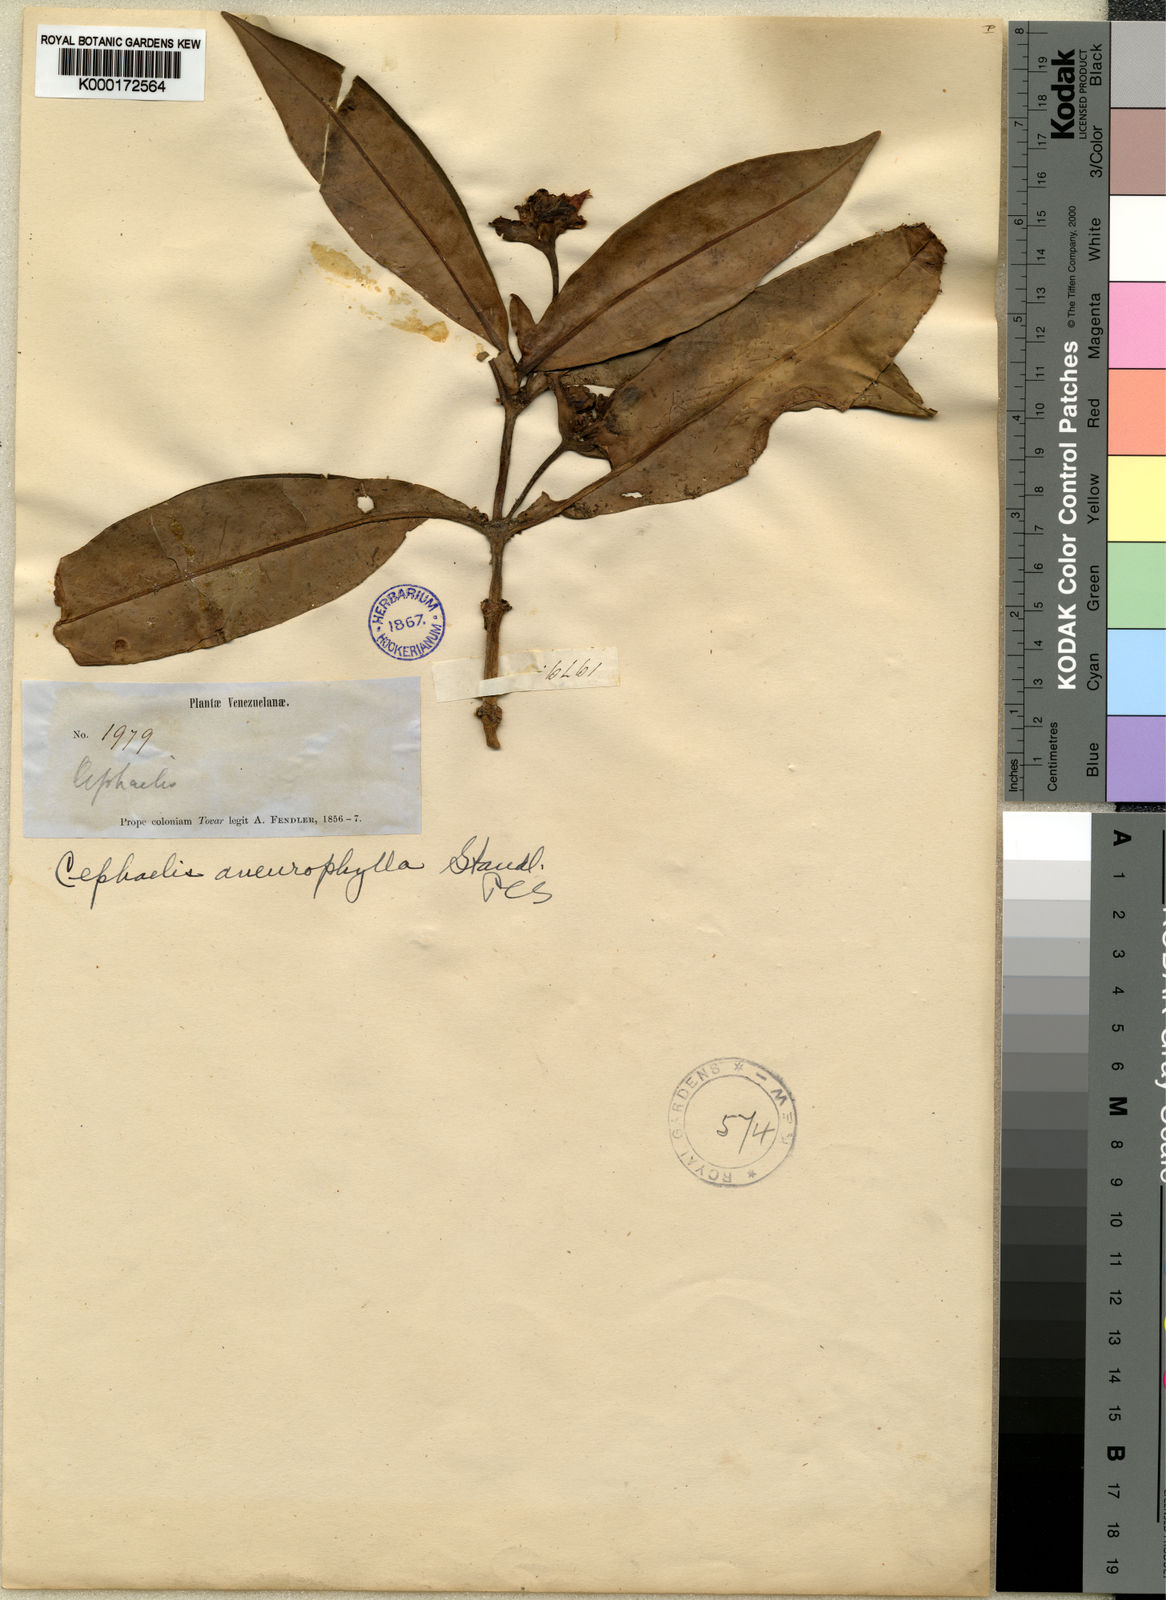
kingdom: Plantae
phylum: Tracheophyta
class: Magnoliopsida
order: Gentianales
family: Rubiaceae
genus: Notopleura
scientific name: Notopleura aneurophylla
